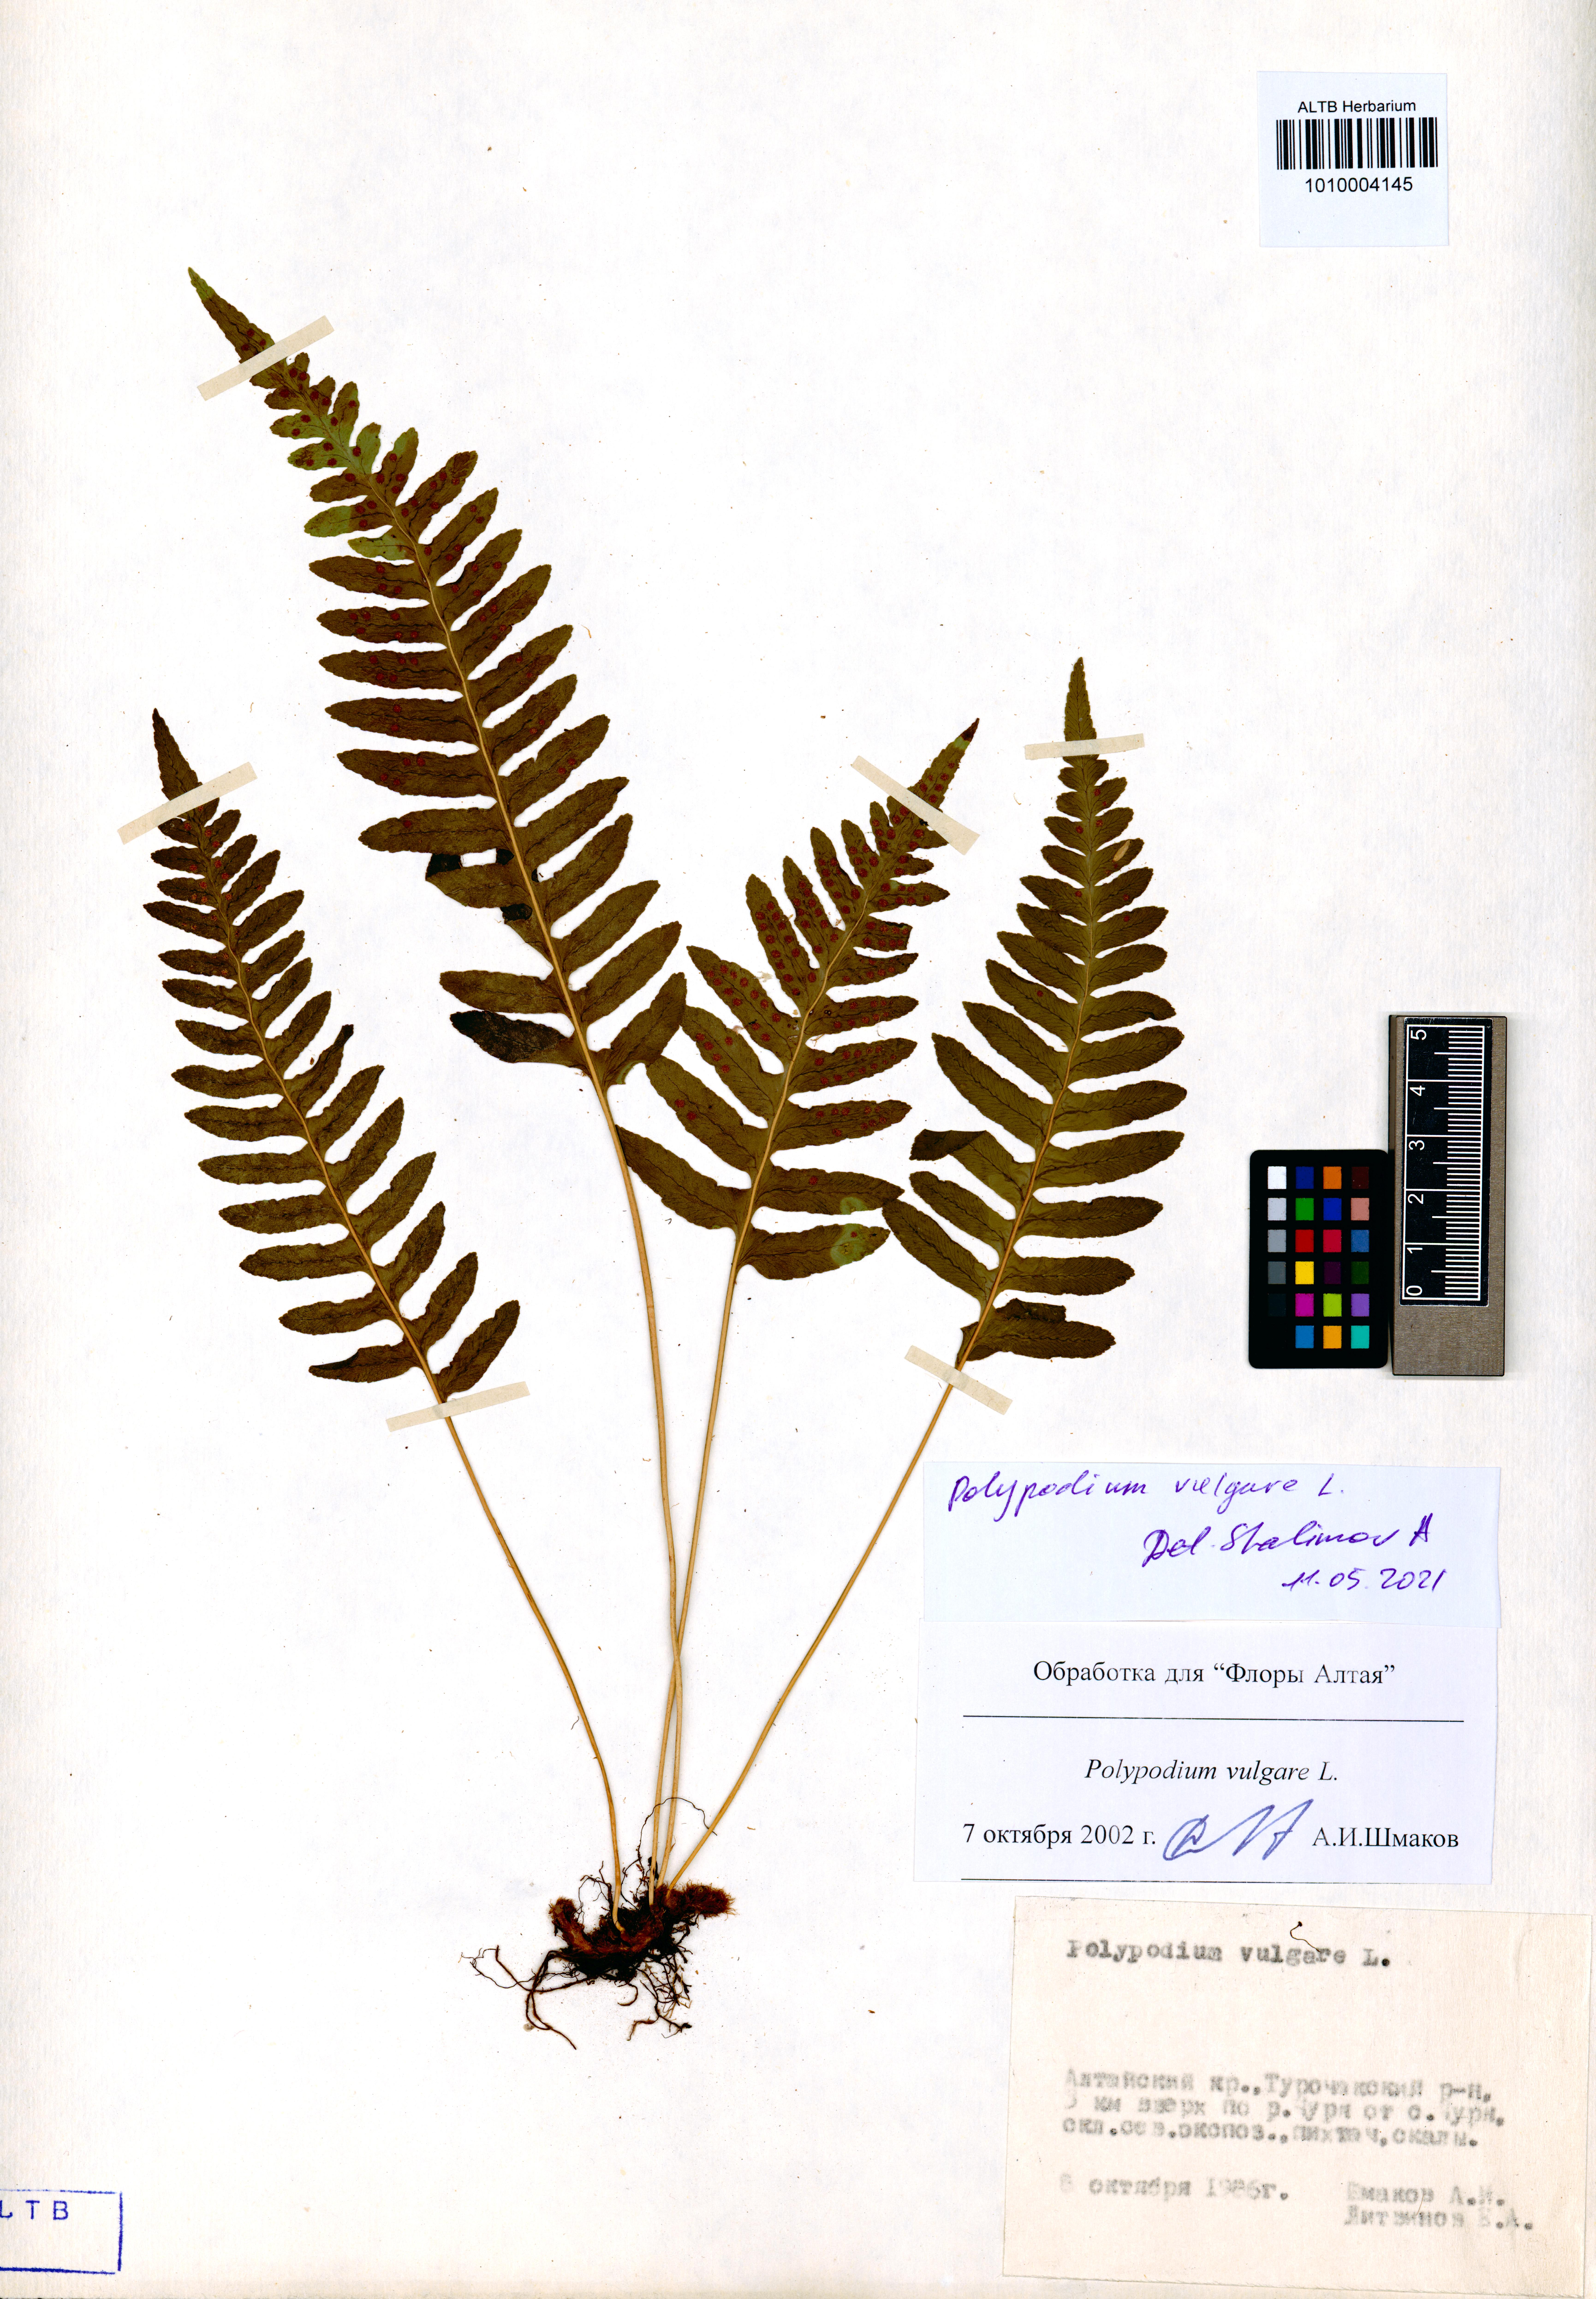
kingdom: Plantae
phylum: Tracheophyta
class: Polypodiopsida
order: Polypodiales
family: Polypodiaceae
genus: Polypodium
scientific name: Polypodium vulgare
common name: Common polypody
